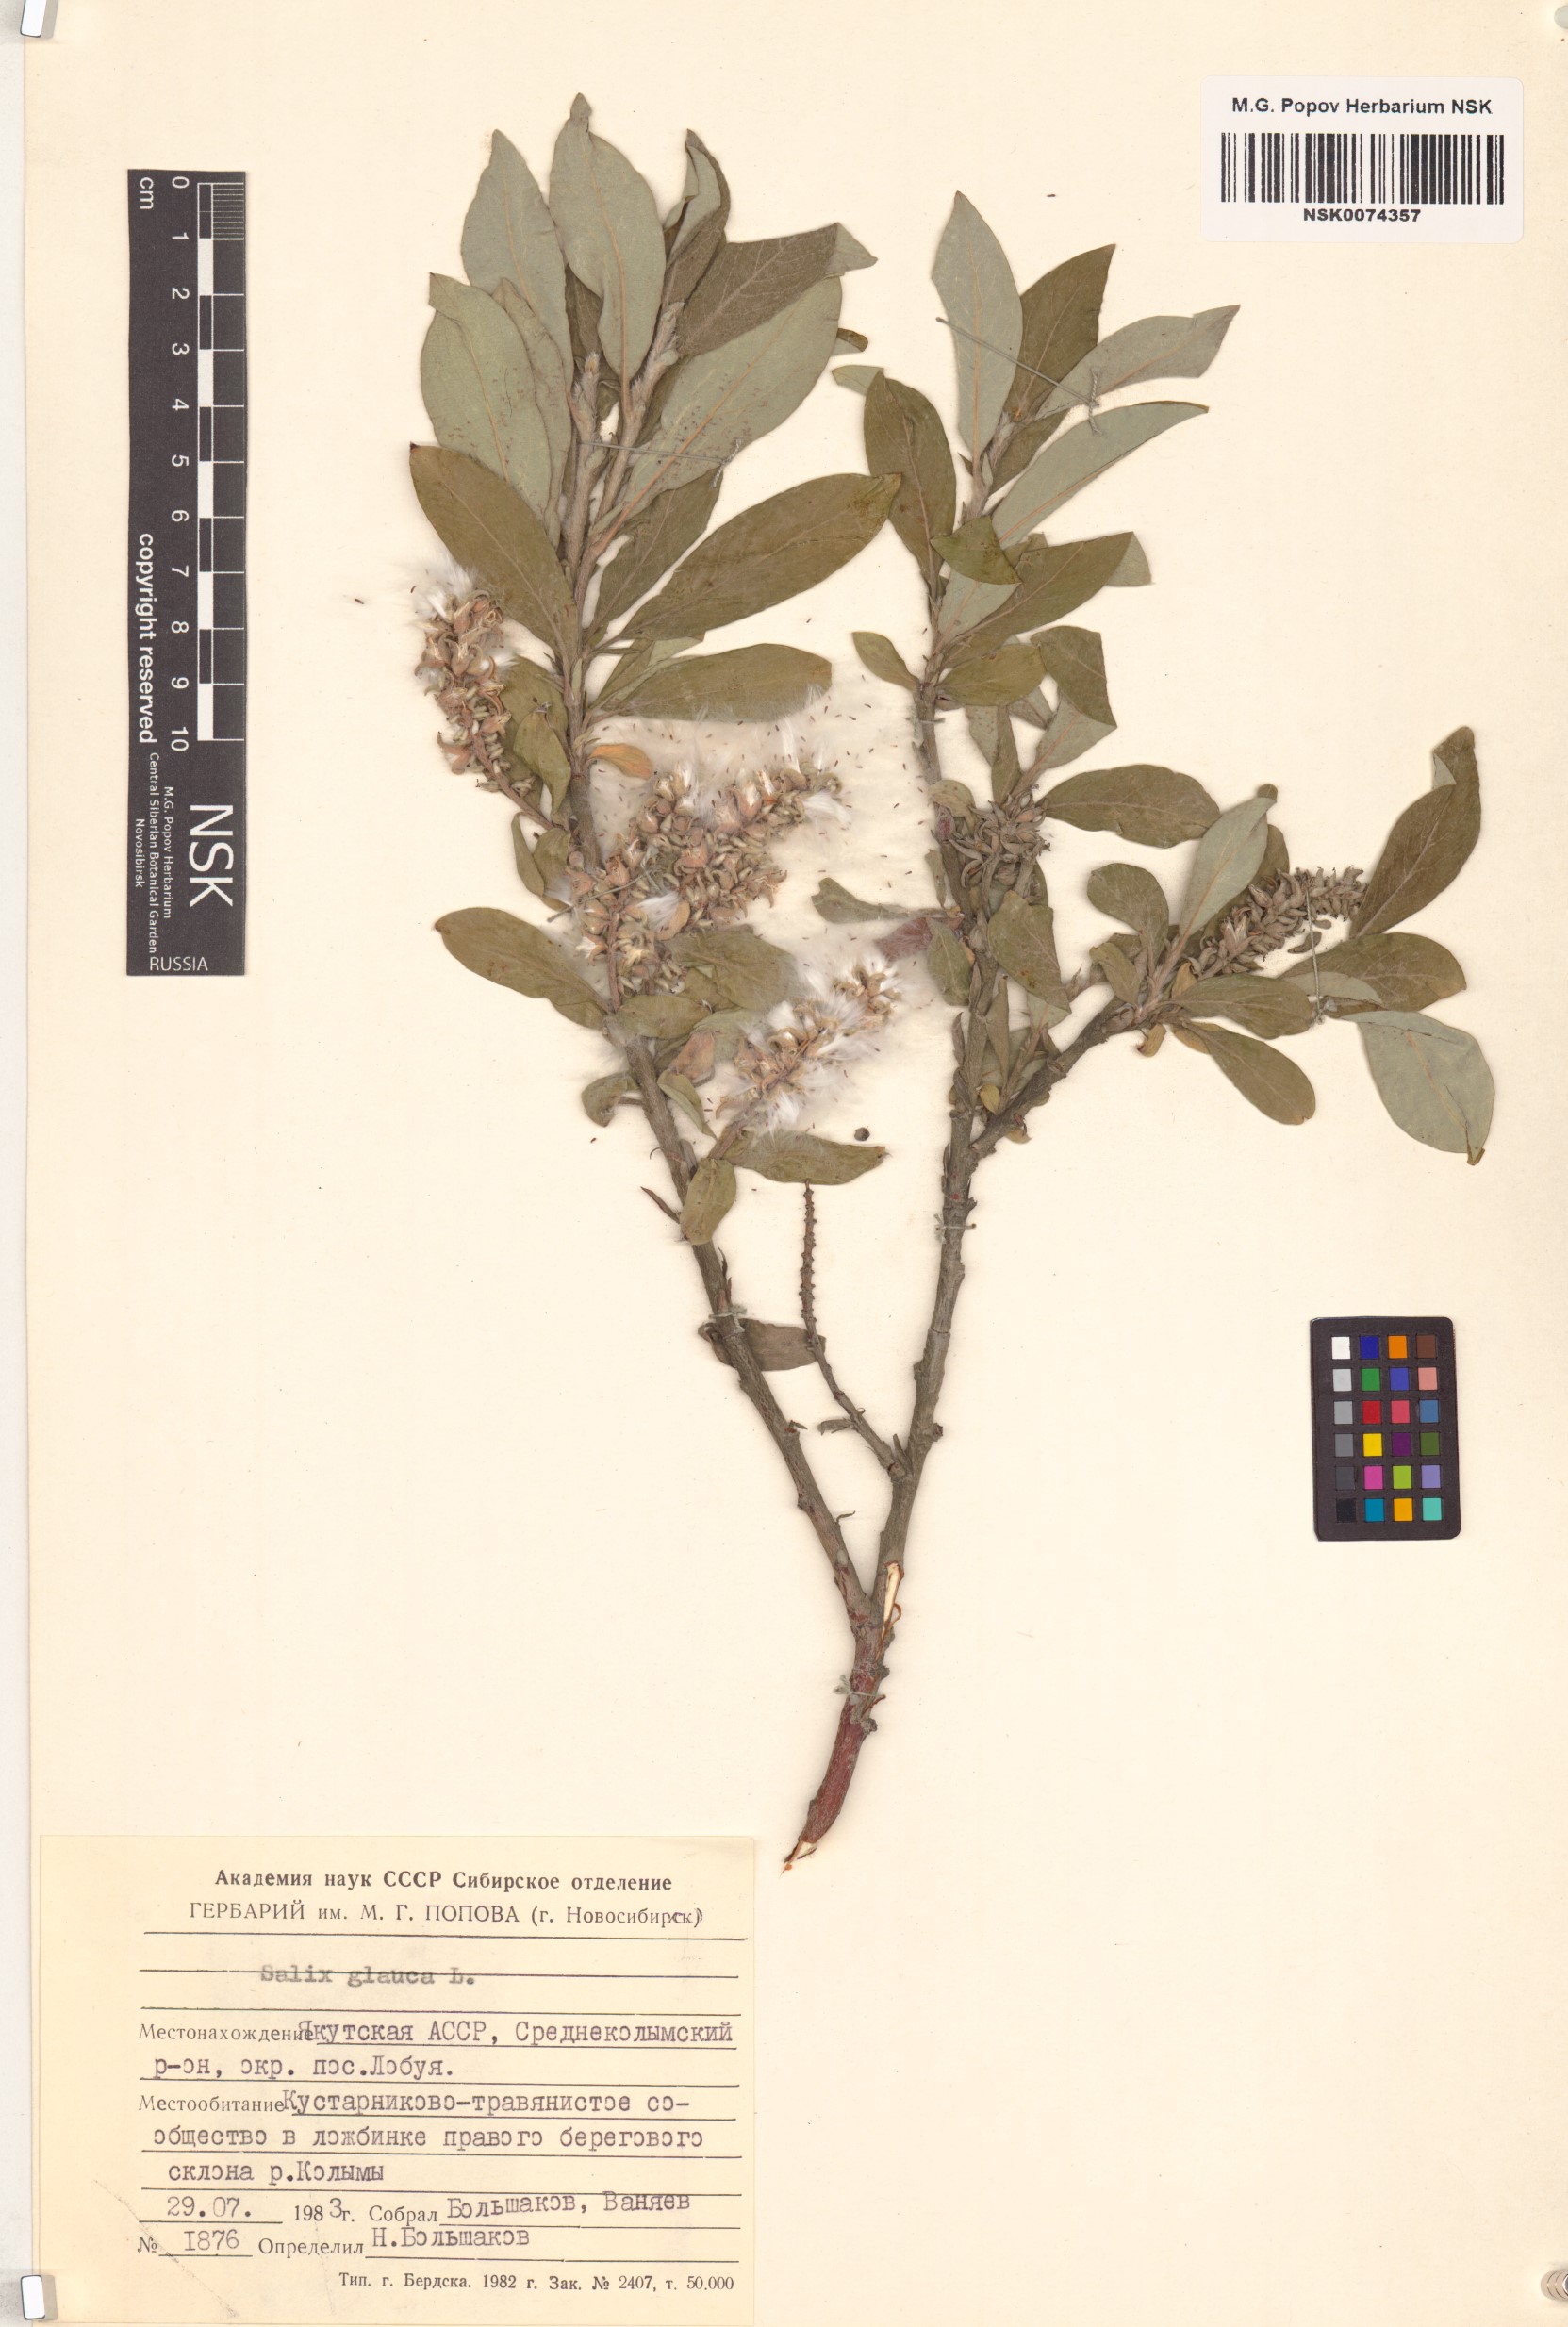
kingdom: Plantae
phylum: Tracheophyta
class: Magnoliopsida
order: Malpighiales
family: Salicaceae
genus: Salix
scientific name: Salix glauca
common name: Glaucous willow
